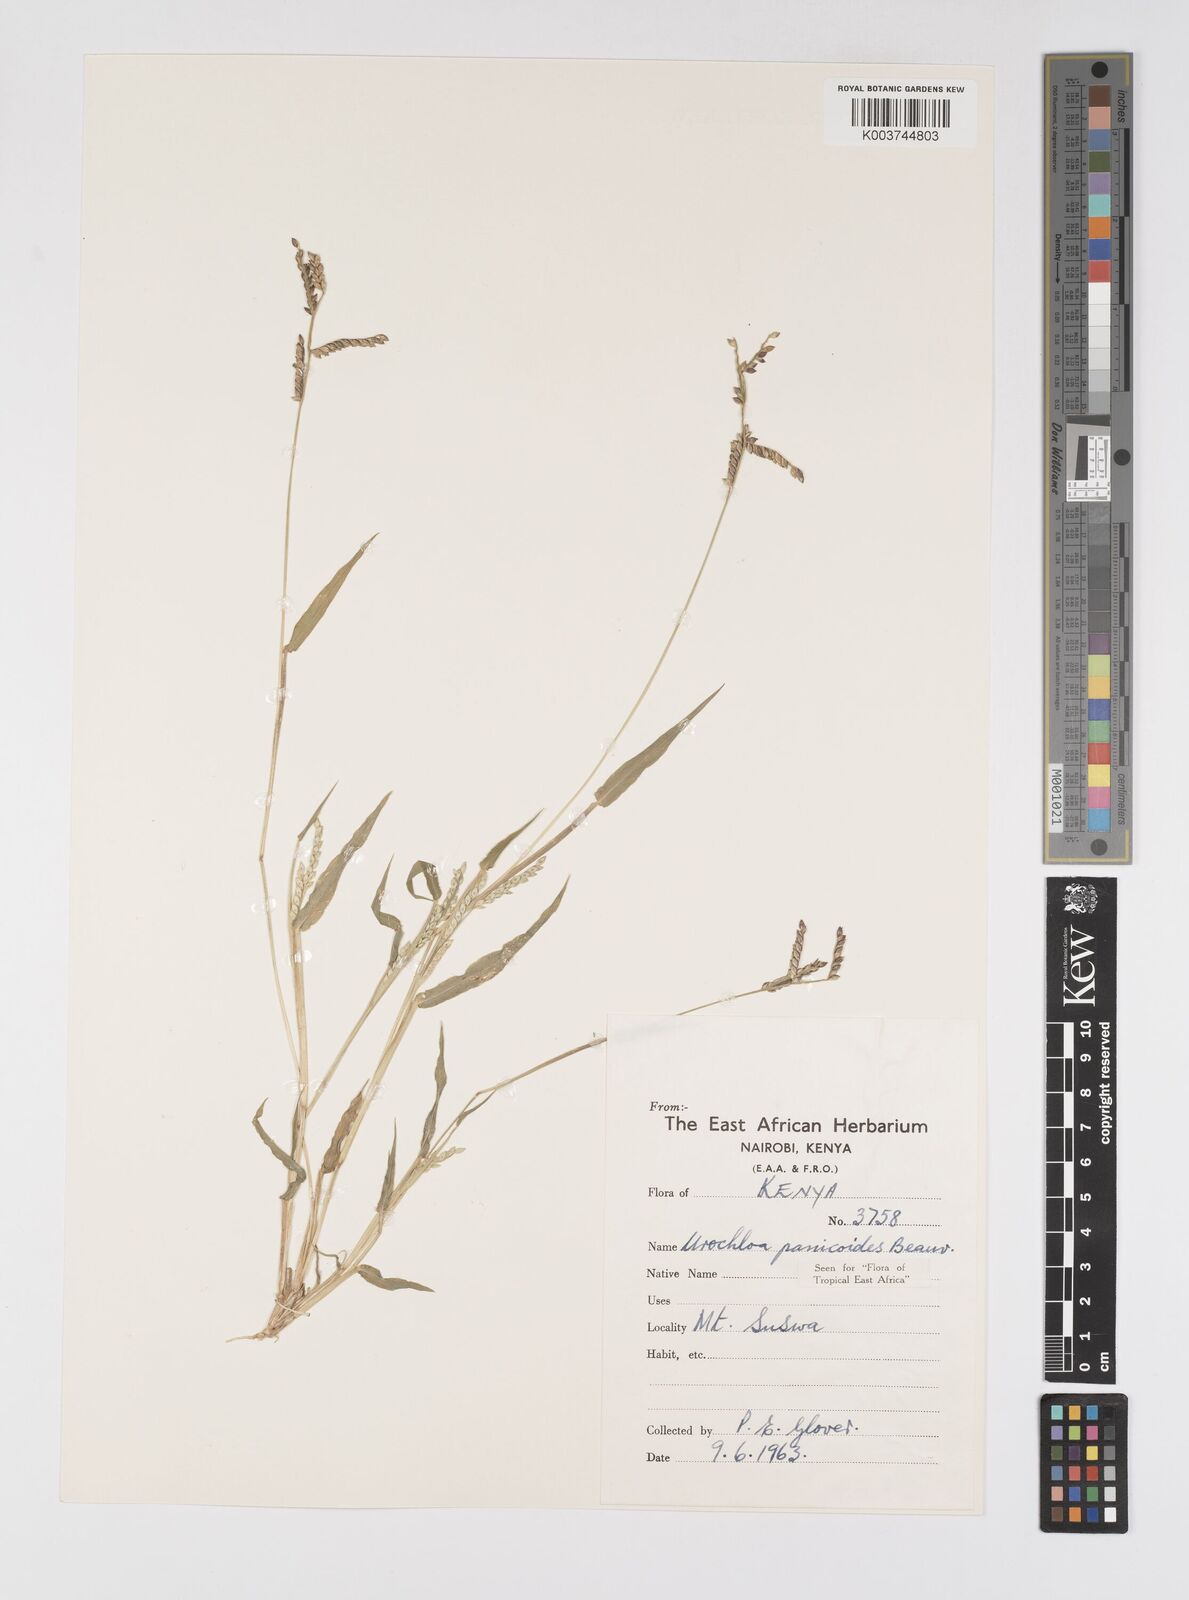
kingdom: Plantae
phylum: Tracheophyta
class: Liliopsida
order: Poales
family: Poaceae
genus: Urochloa
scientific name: Urochloa panicoides
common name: Sharp-flowered signal-grass
